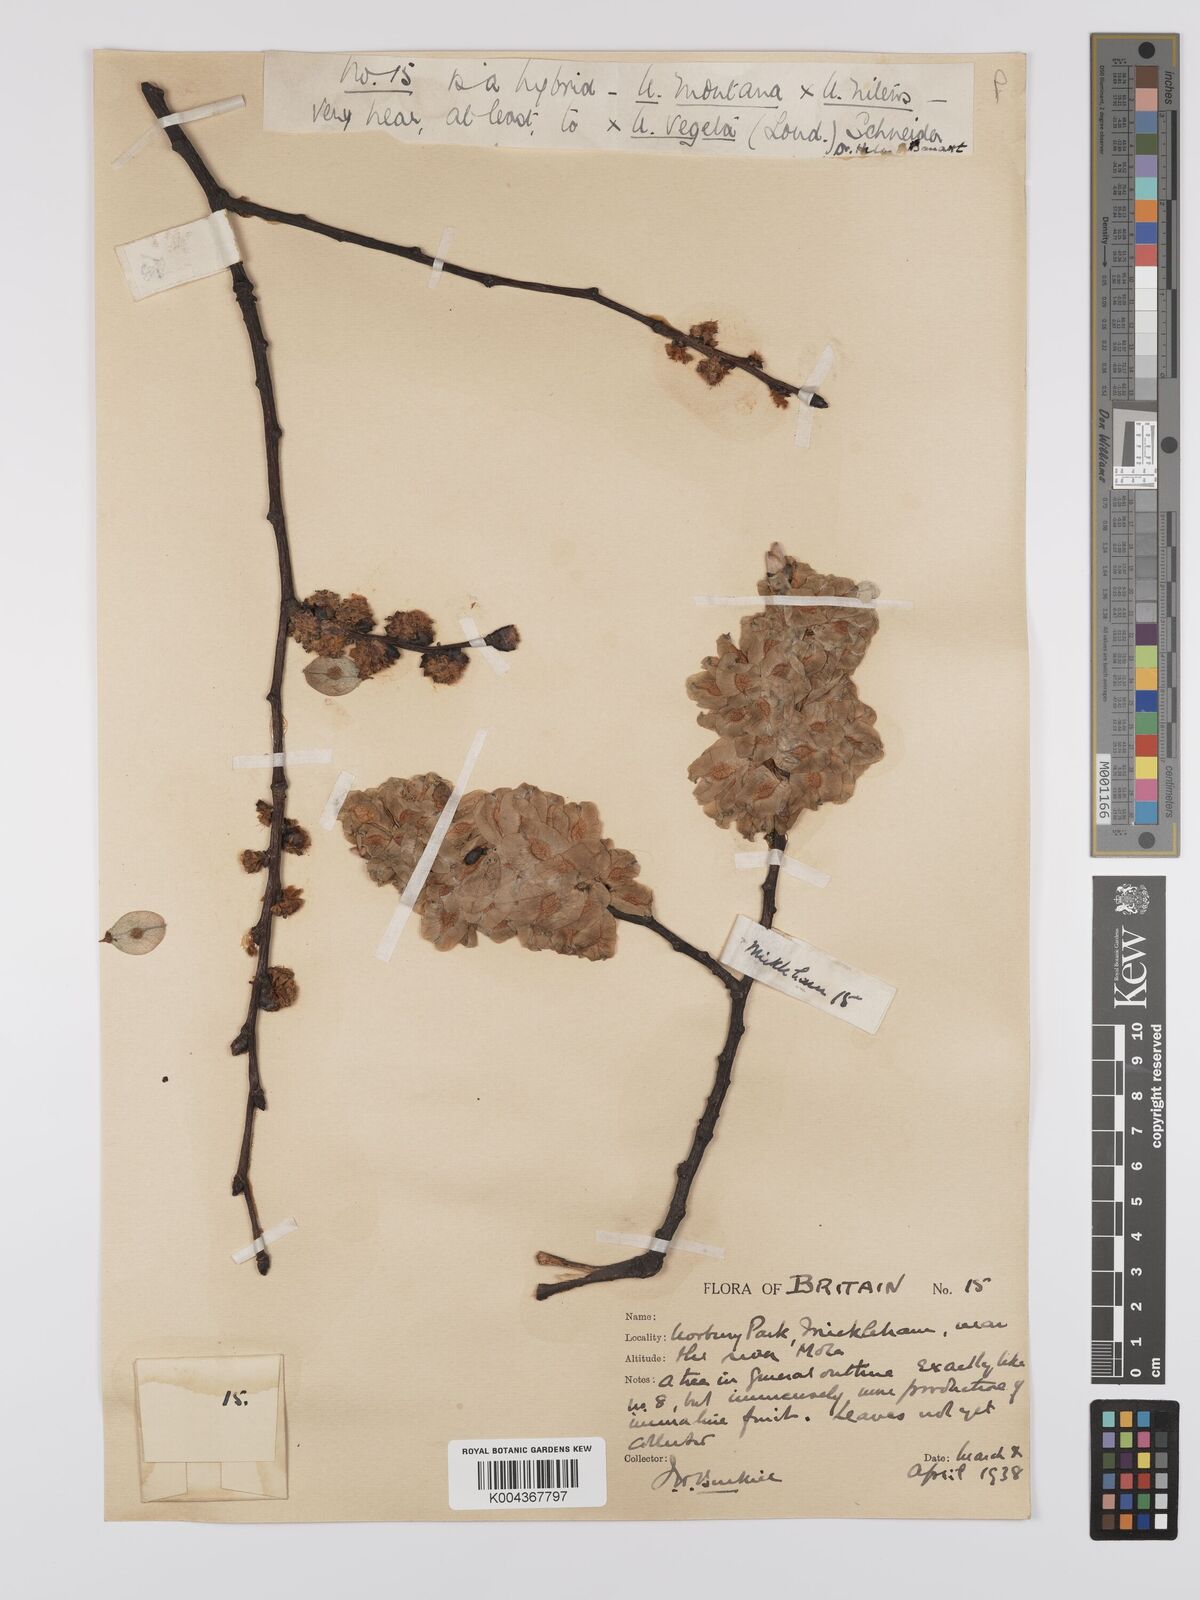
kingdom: Plantae
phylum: Tracheophyta
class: Magnoliopsida
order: Rosales
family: Ulmaceae
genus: Ulmus
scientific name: Ulmus
